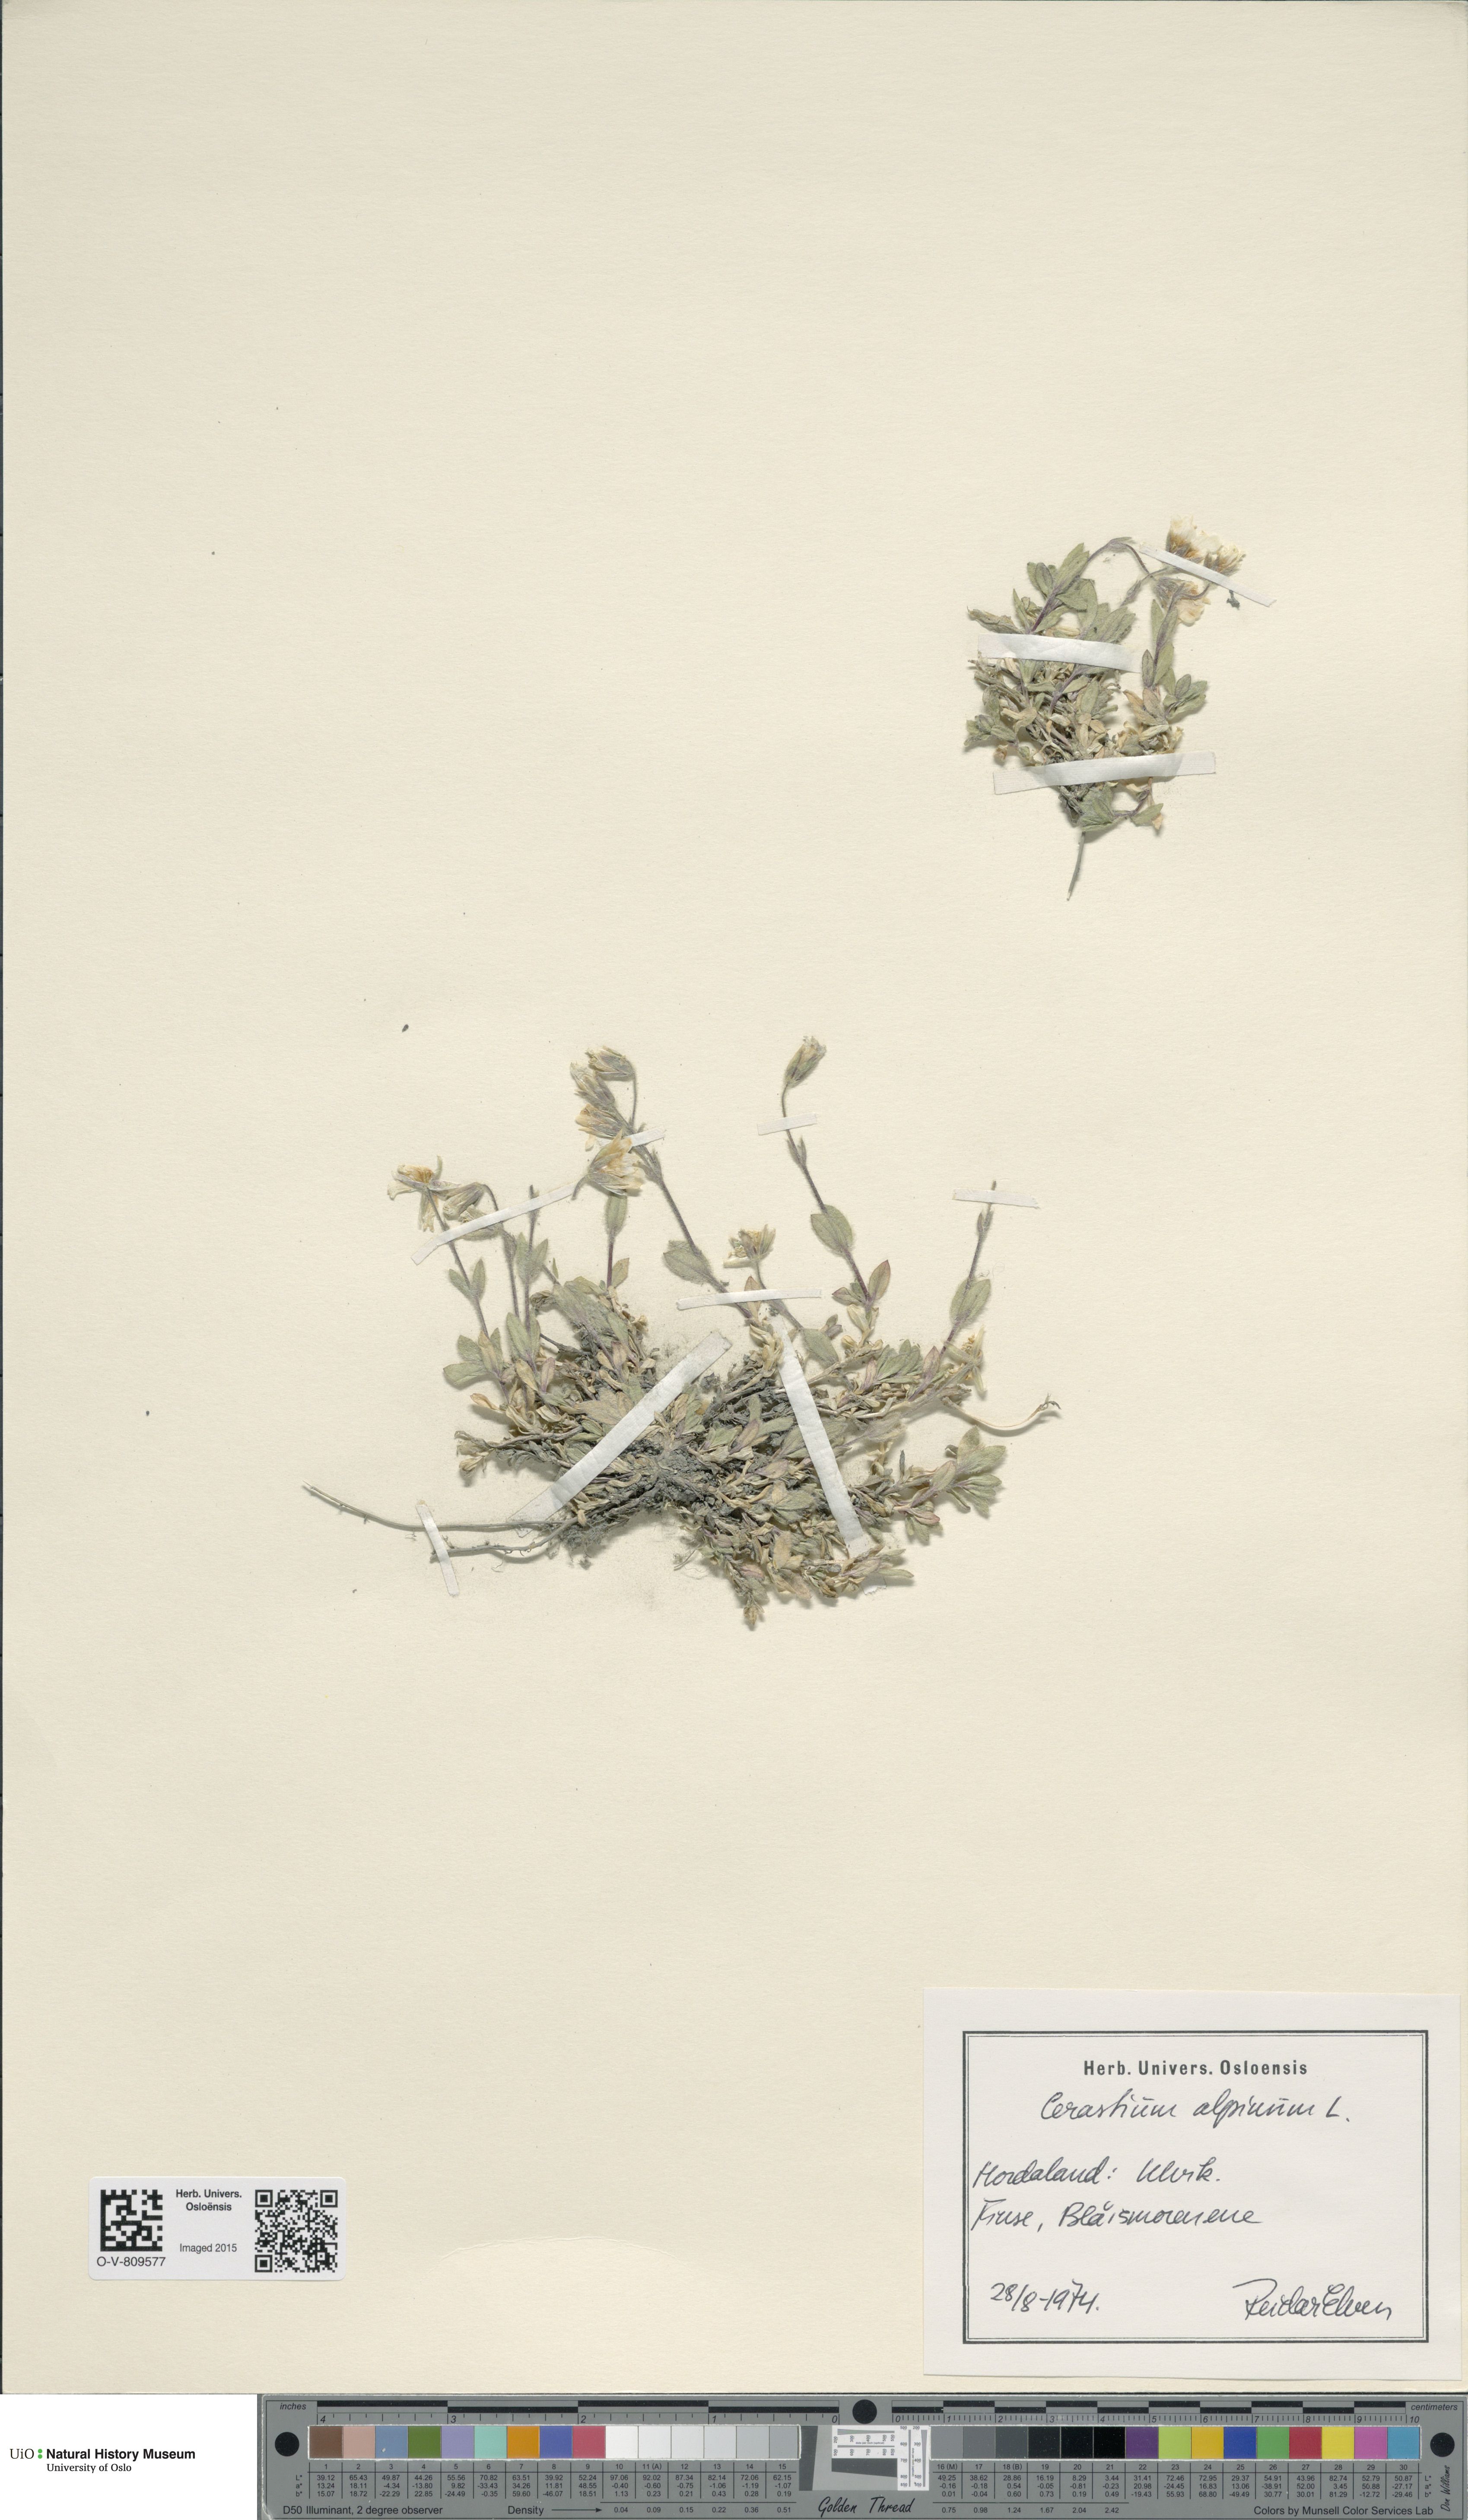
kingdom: Plantae
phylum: Tracheophyta
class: Magnoliopsida
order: Caryophyllales
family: Caryophyllaceae
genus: Cerastium
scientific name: Cerastium alpinum
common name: Alpine mouse-ear
